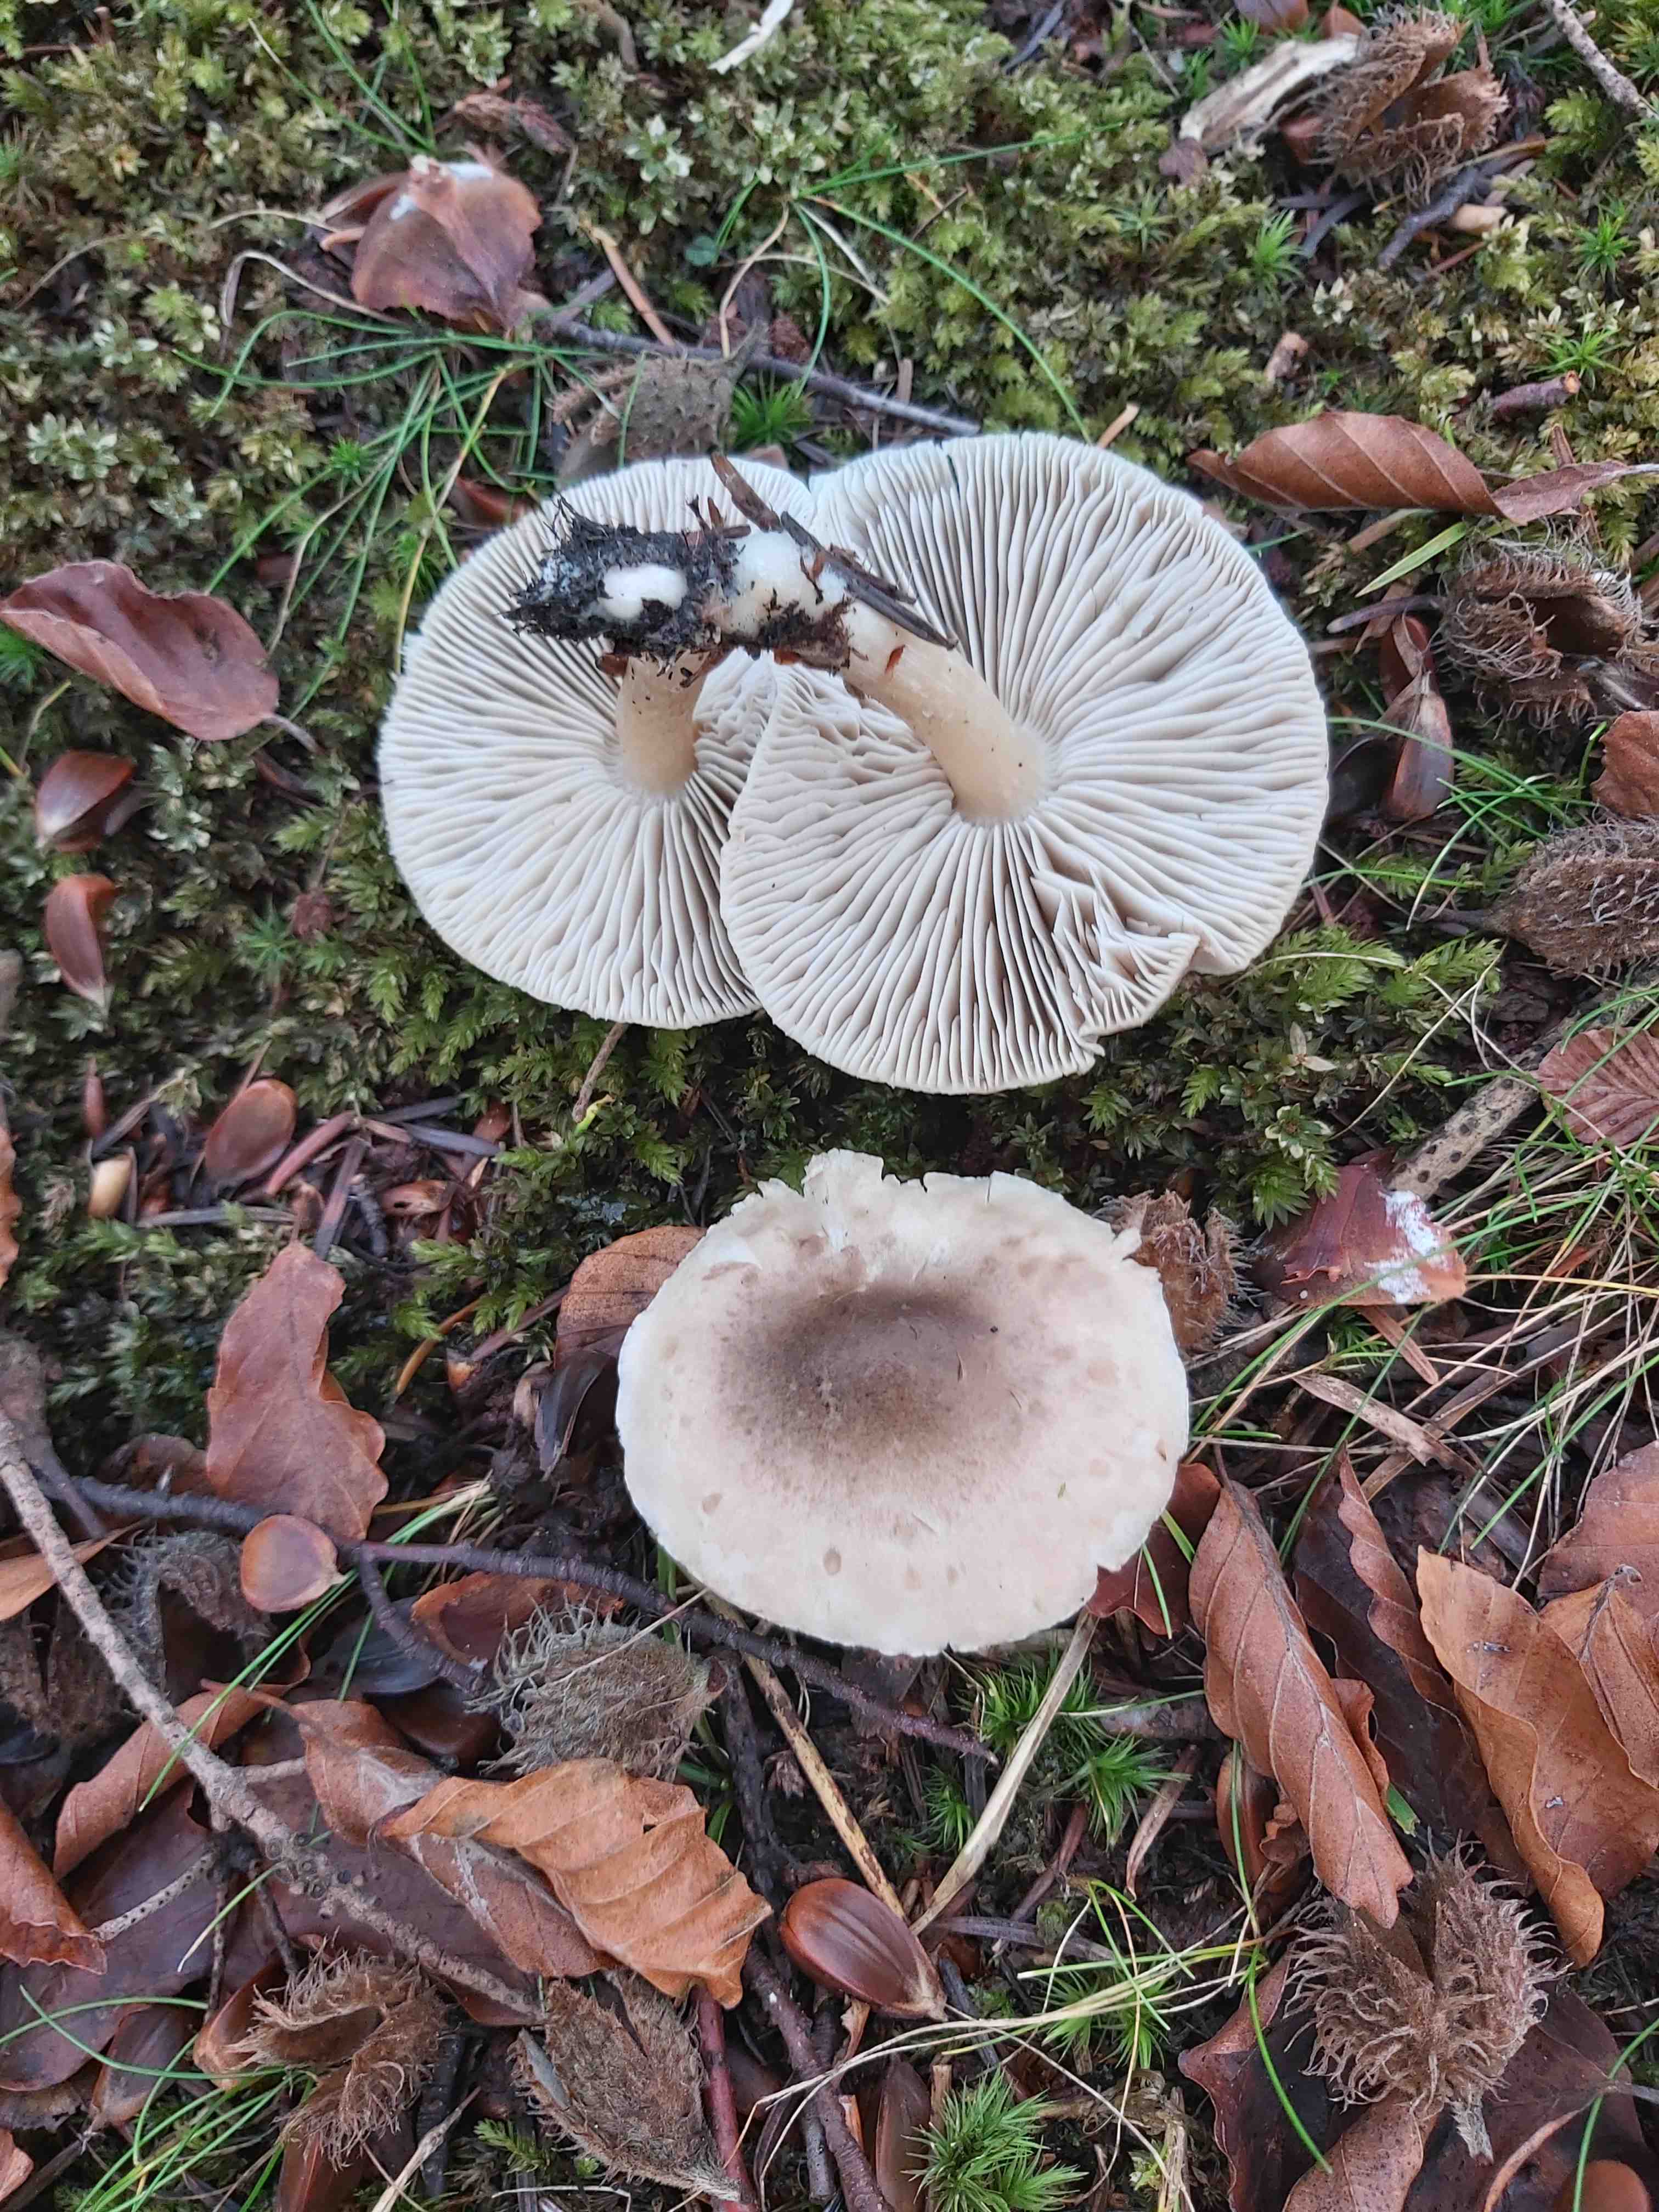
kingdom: Fungi
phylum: Basidiomycota
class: Agaricomycetes
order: Agaricales
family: Tricholomataceae
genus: Tricholoma
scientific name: Tricholoma
